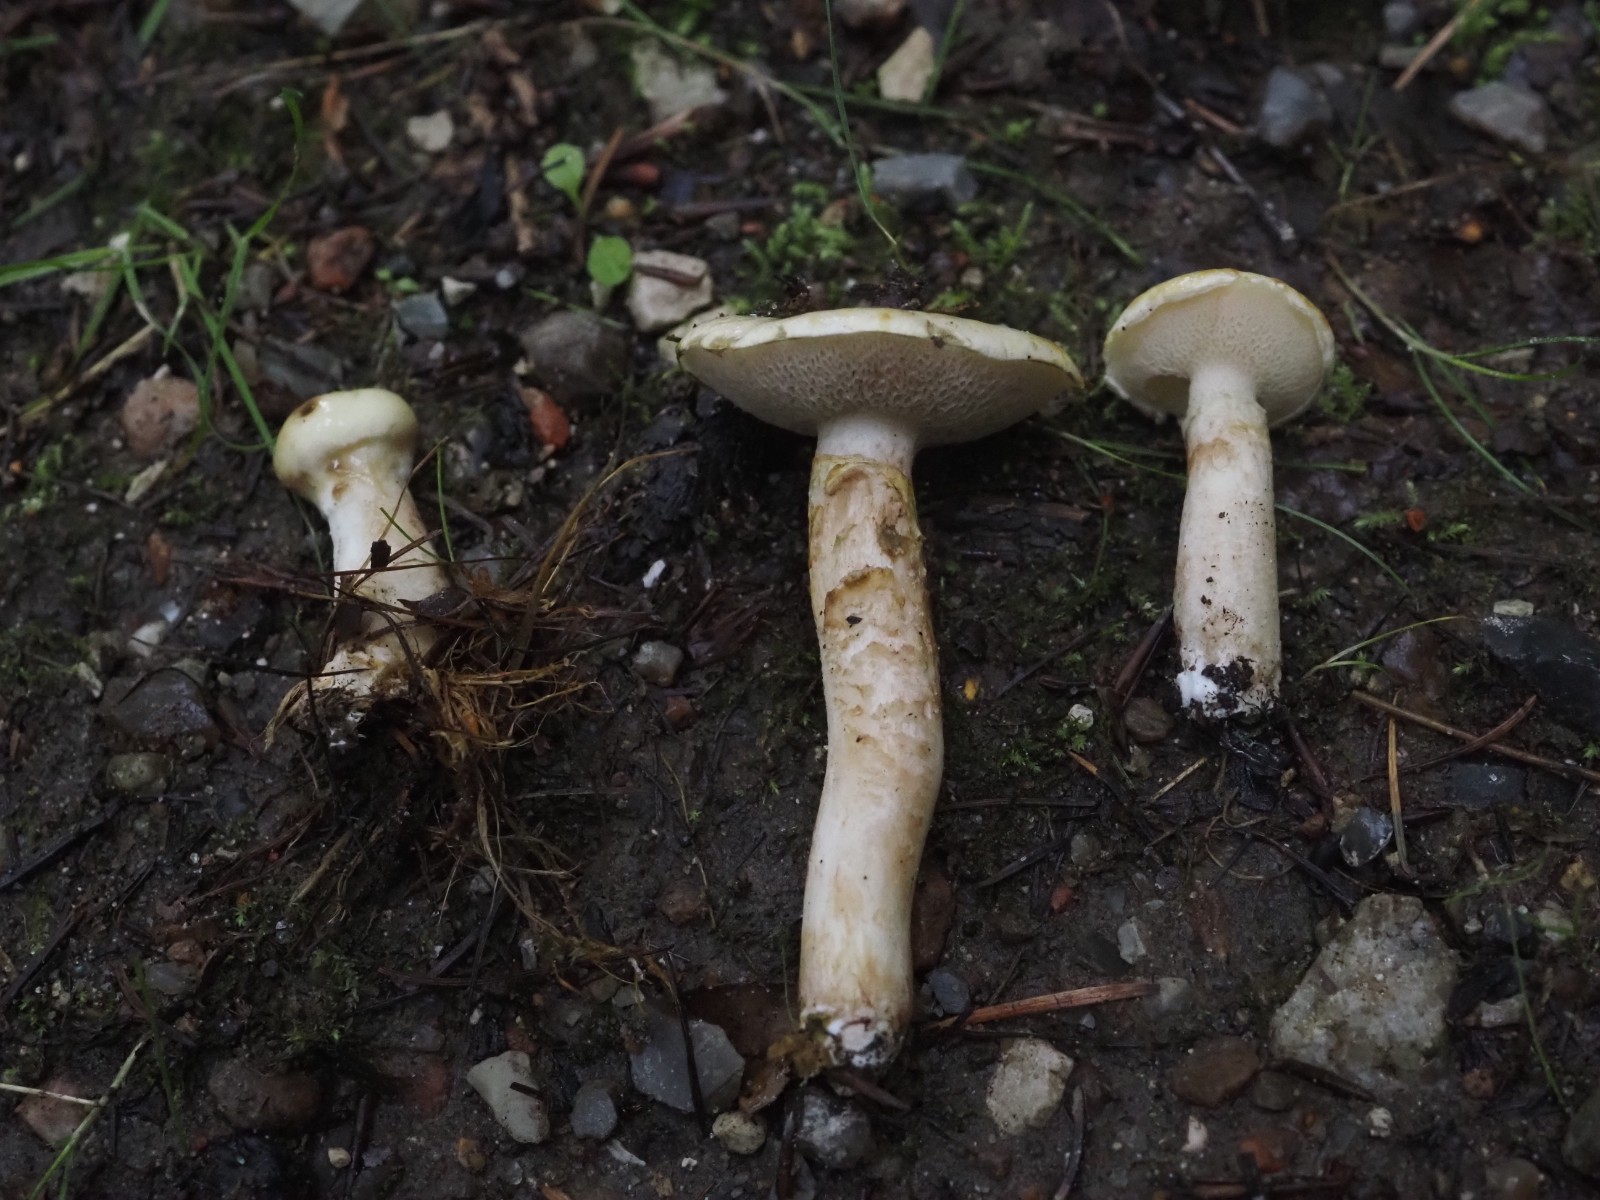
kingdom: Fungi
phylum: Basidiomycota
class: Agaricomycetes
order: Boletales
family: Suillaceae
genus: Suillus
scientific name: Suillus viscidus
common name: olivengrå slimrørhat
